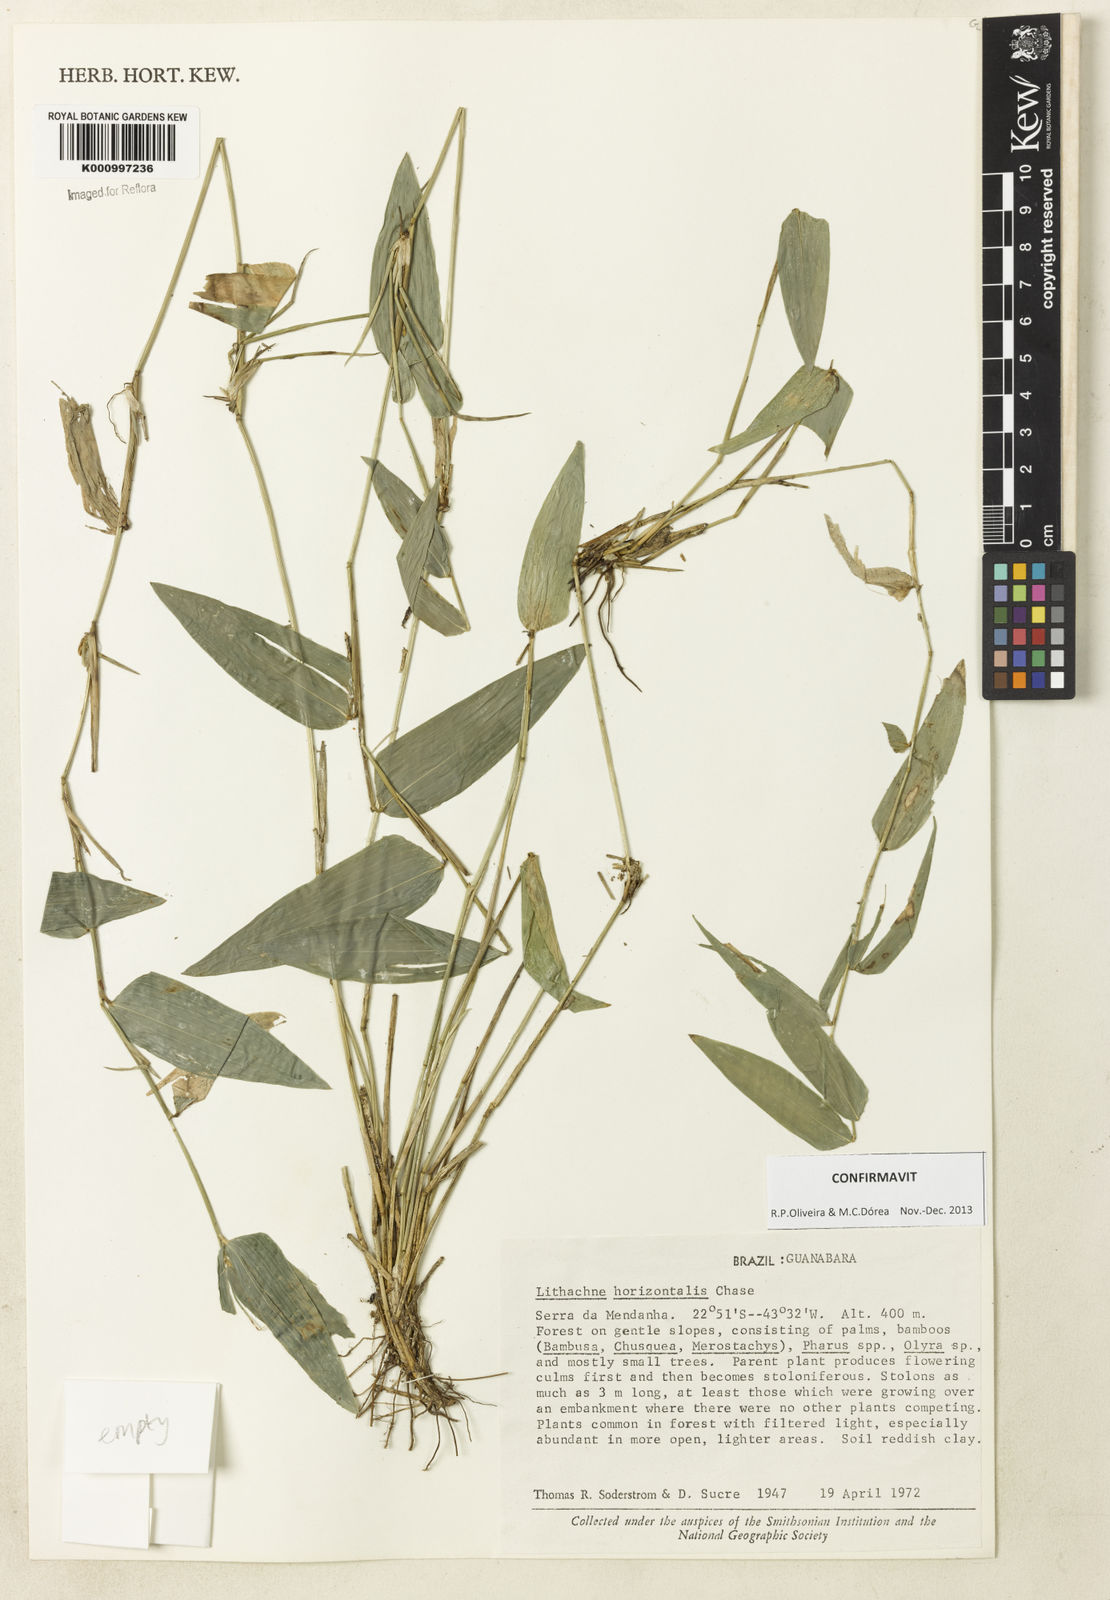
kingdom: Plantae
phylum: Tracheophyta
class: Liliopsida
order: Poales
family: Poaceae
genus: Lithachne
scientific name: Lithachne horizontalis
